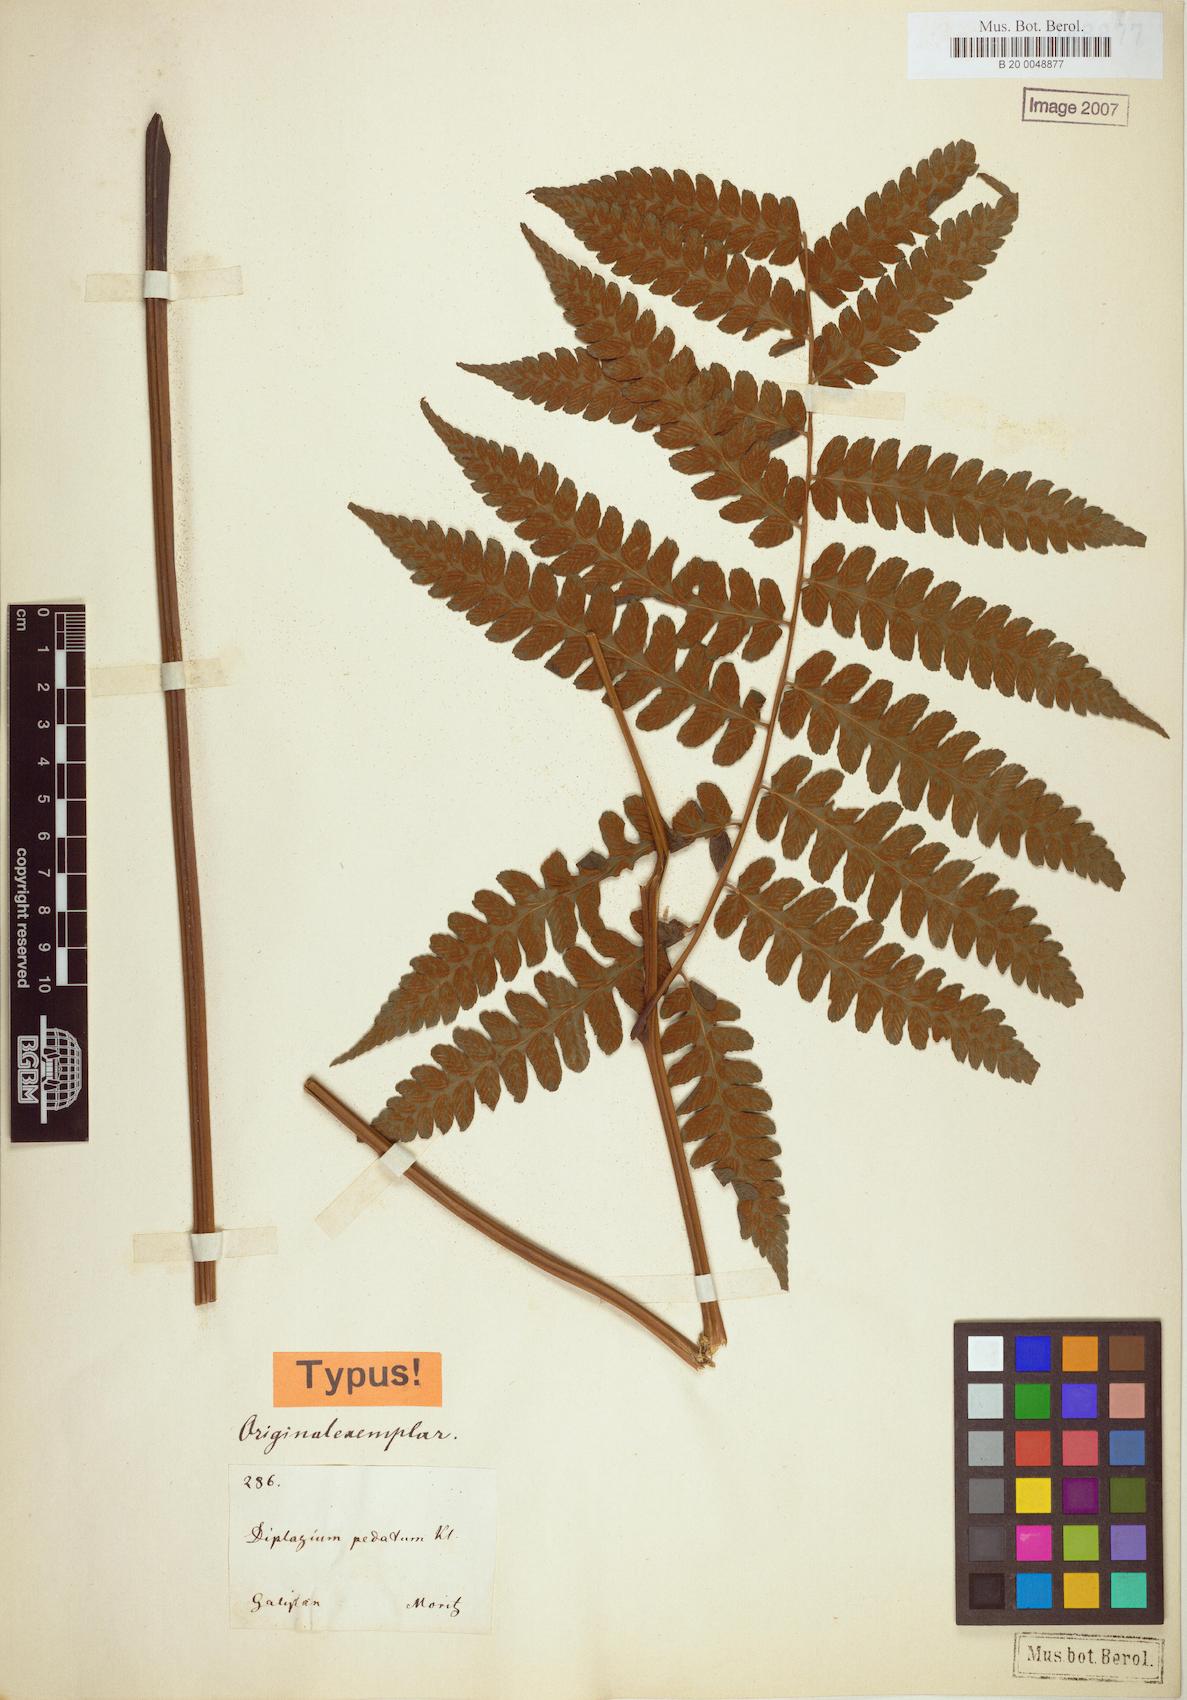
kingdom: Plantae
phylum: Tracheophyta
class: Polypodiopsida
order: Polypodiales
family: Athyriaceae
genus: Diplazium
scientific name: Diplazium pedatum
